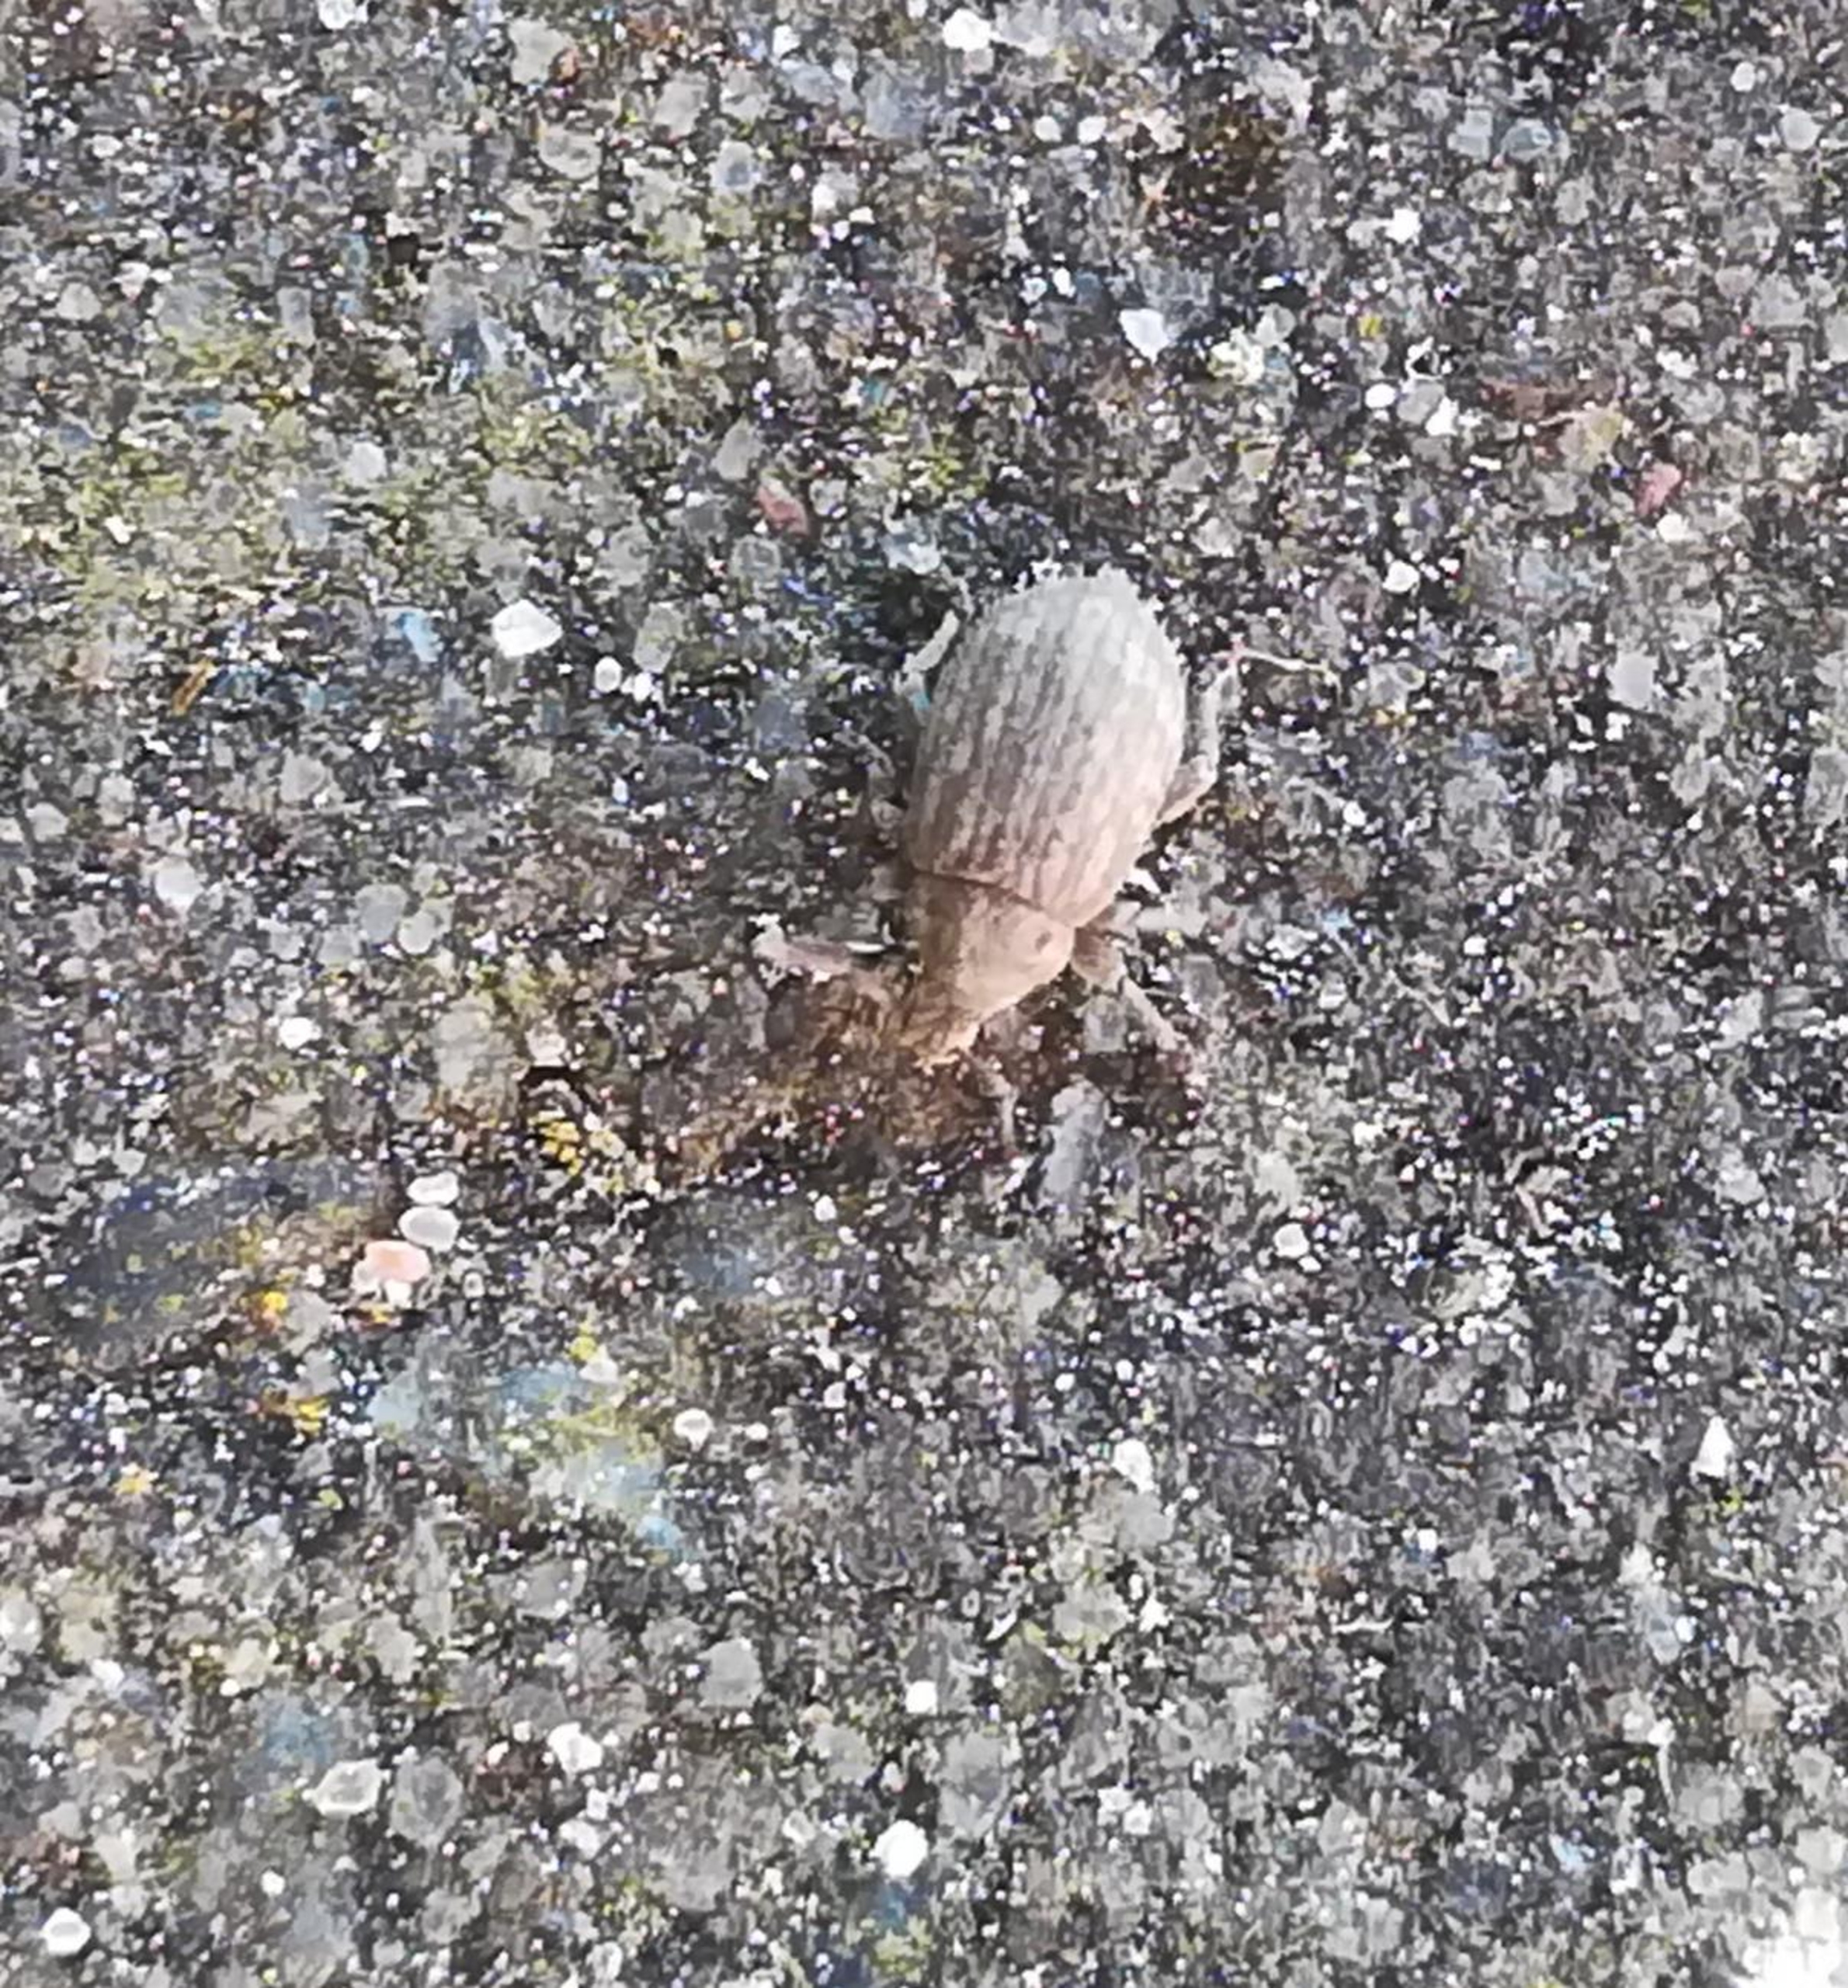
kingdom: Animalia
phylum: Arthropoda
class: Insecta
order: Coleoptera
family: Curculionidae
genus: Romualdius
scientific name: Romualdius scaber
